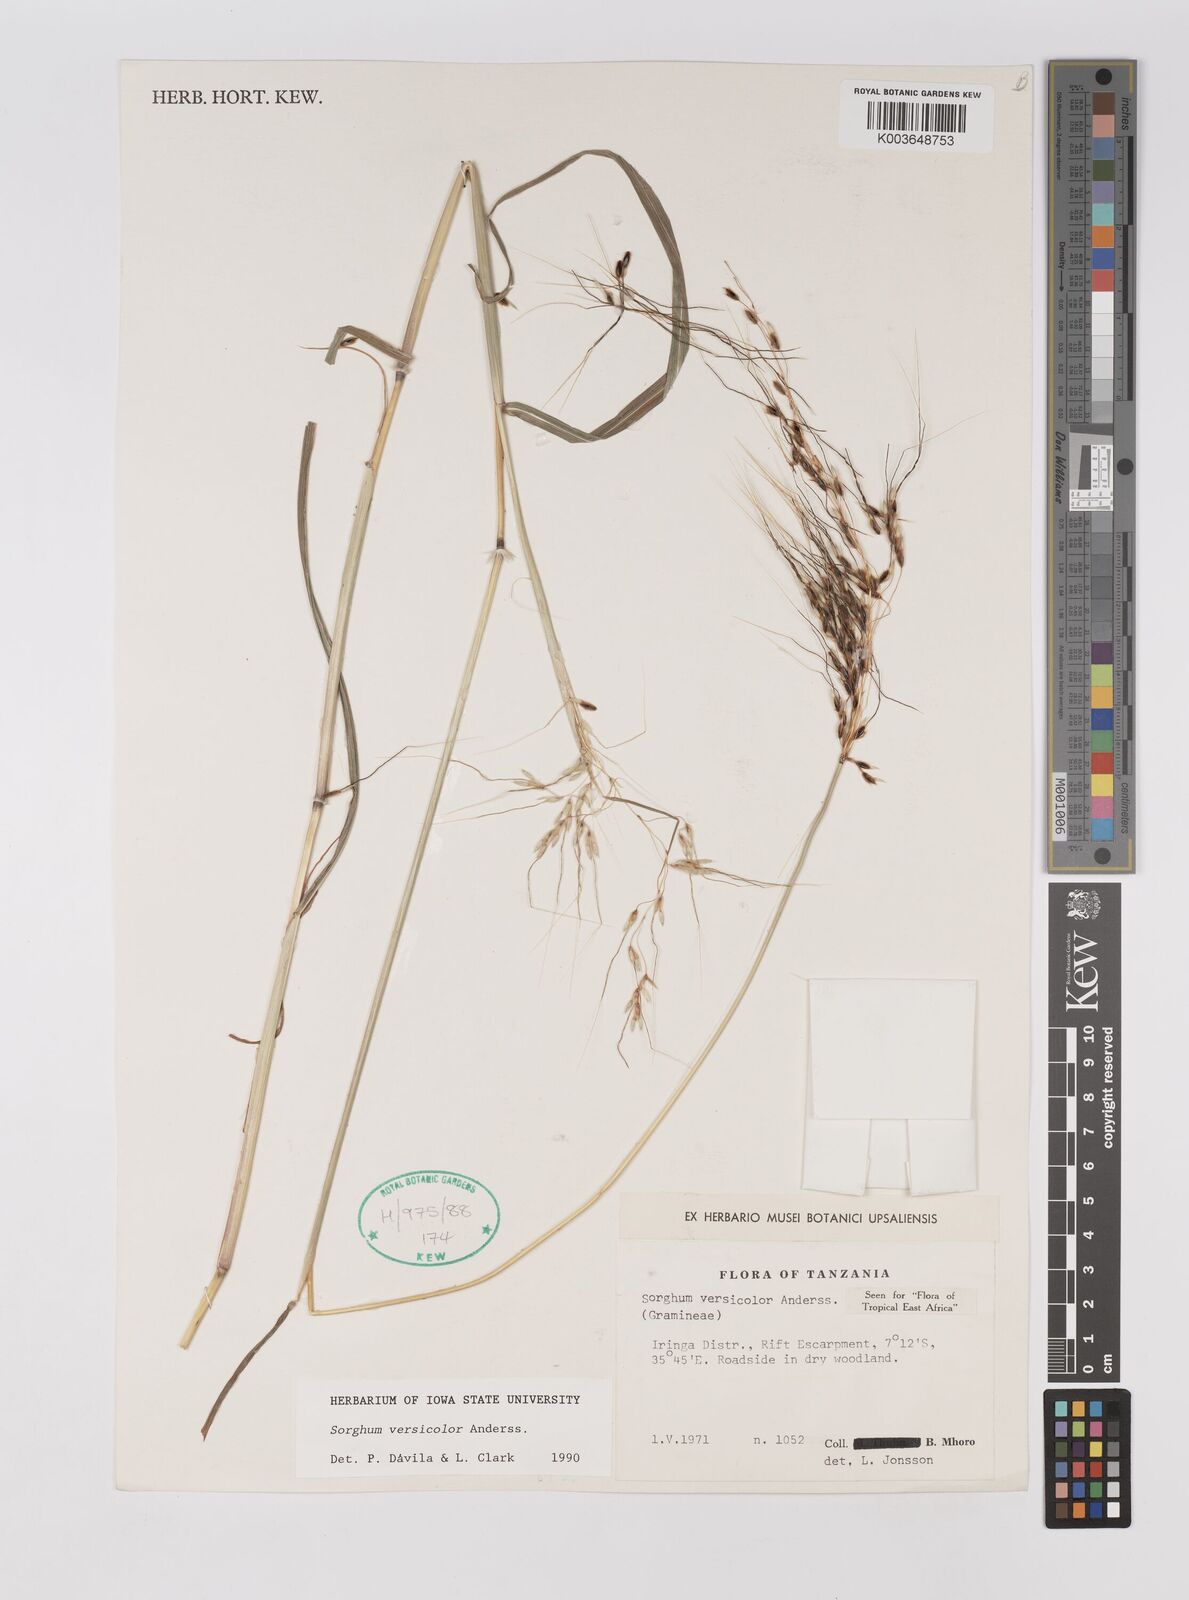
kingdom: Plantae
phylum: Tracheophyta
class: Liliopsida
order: Poales
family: Poaceae
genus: Sarga
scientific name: Sarga versicolor
